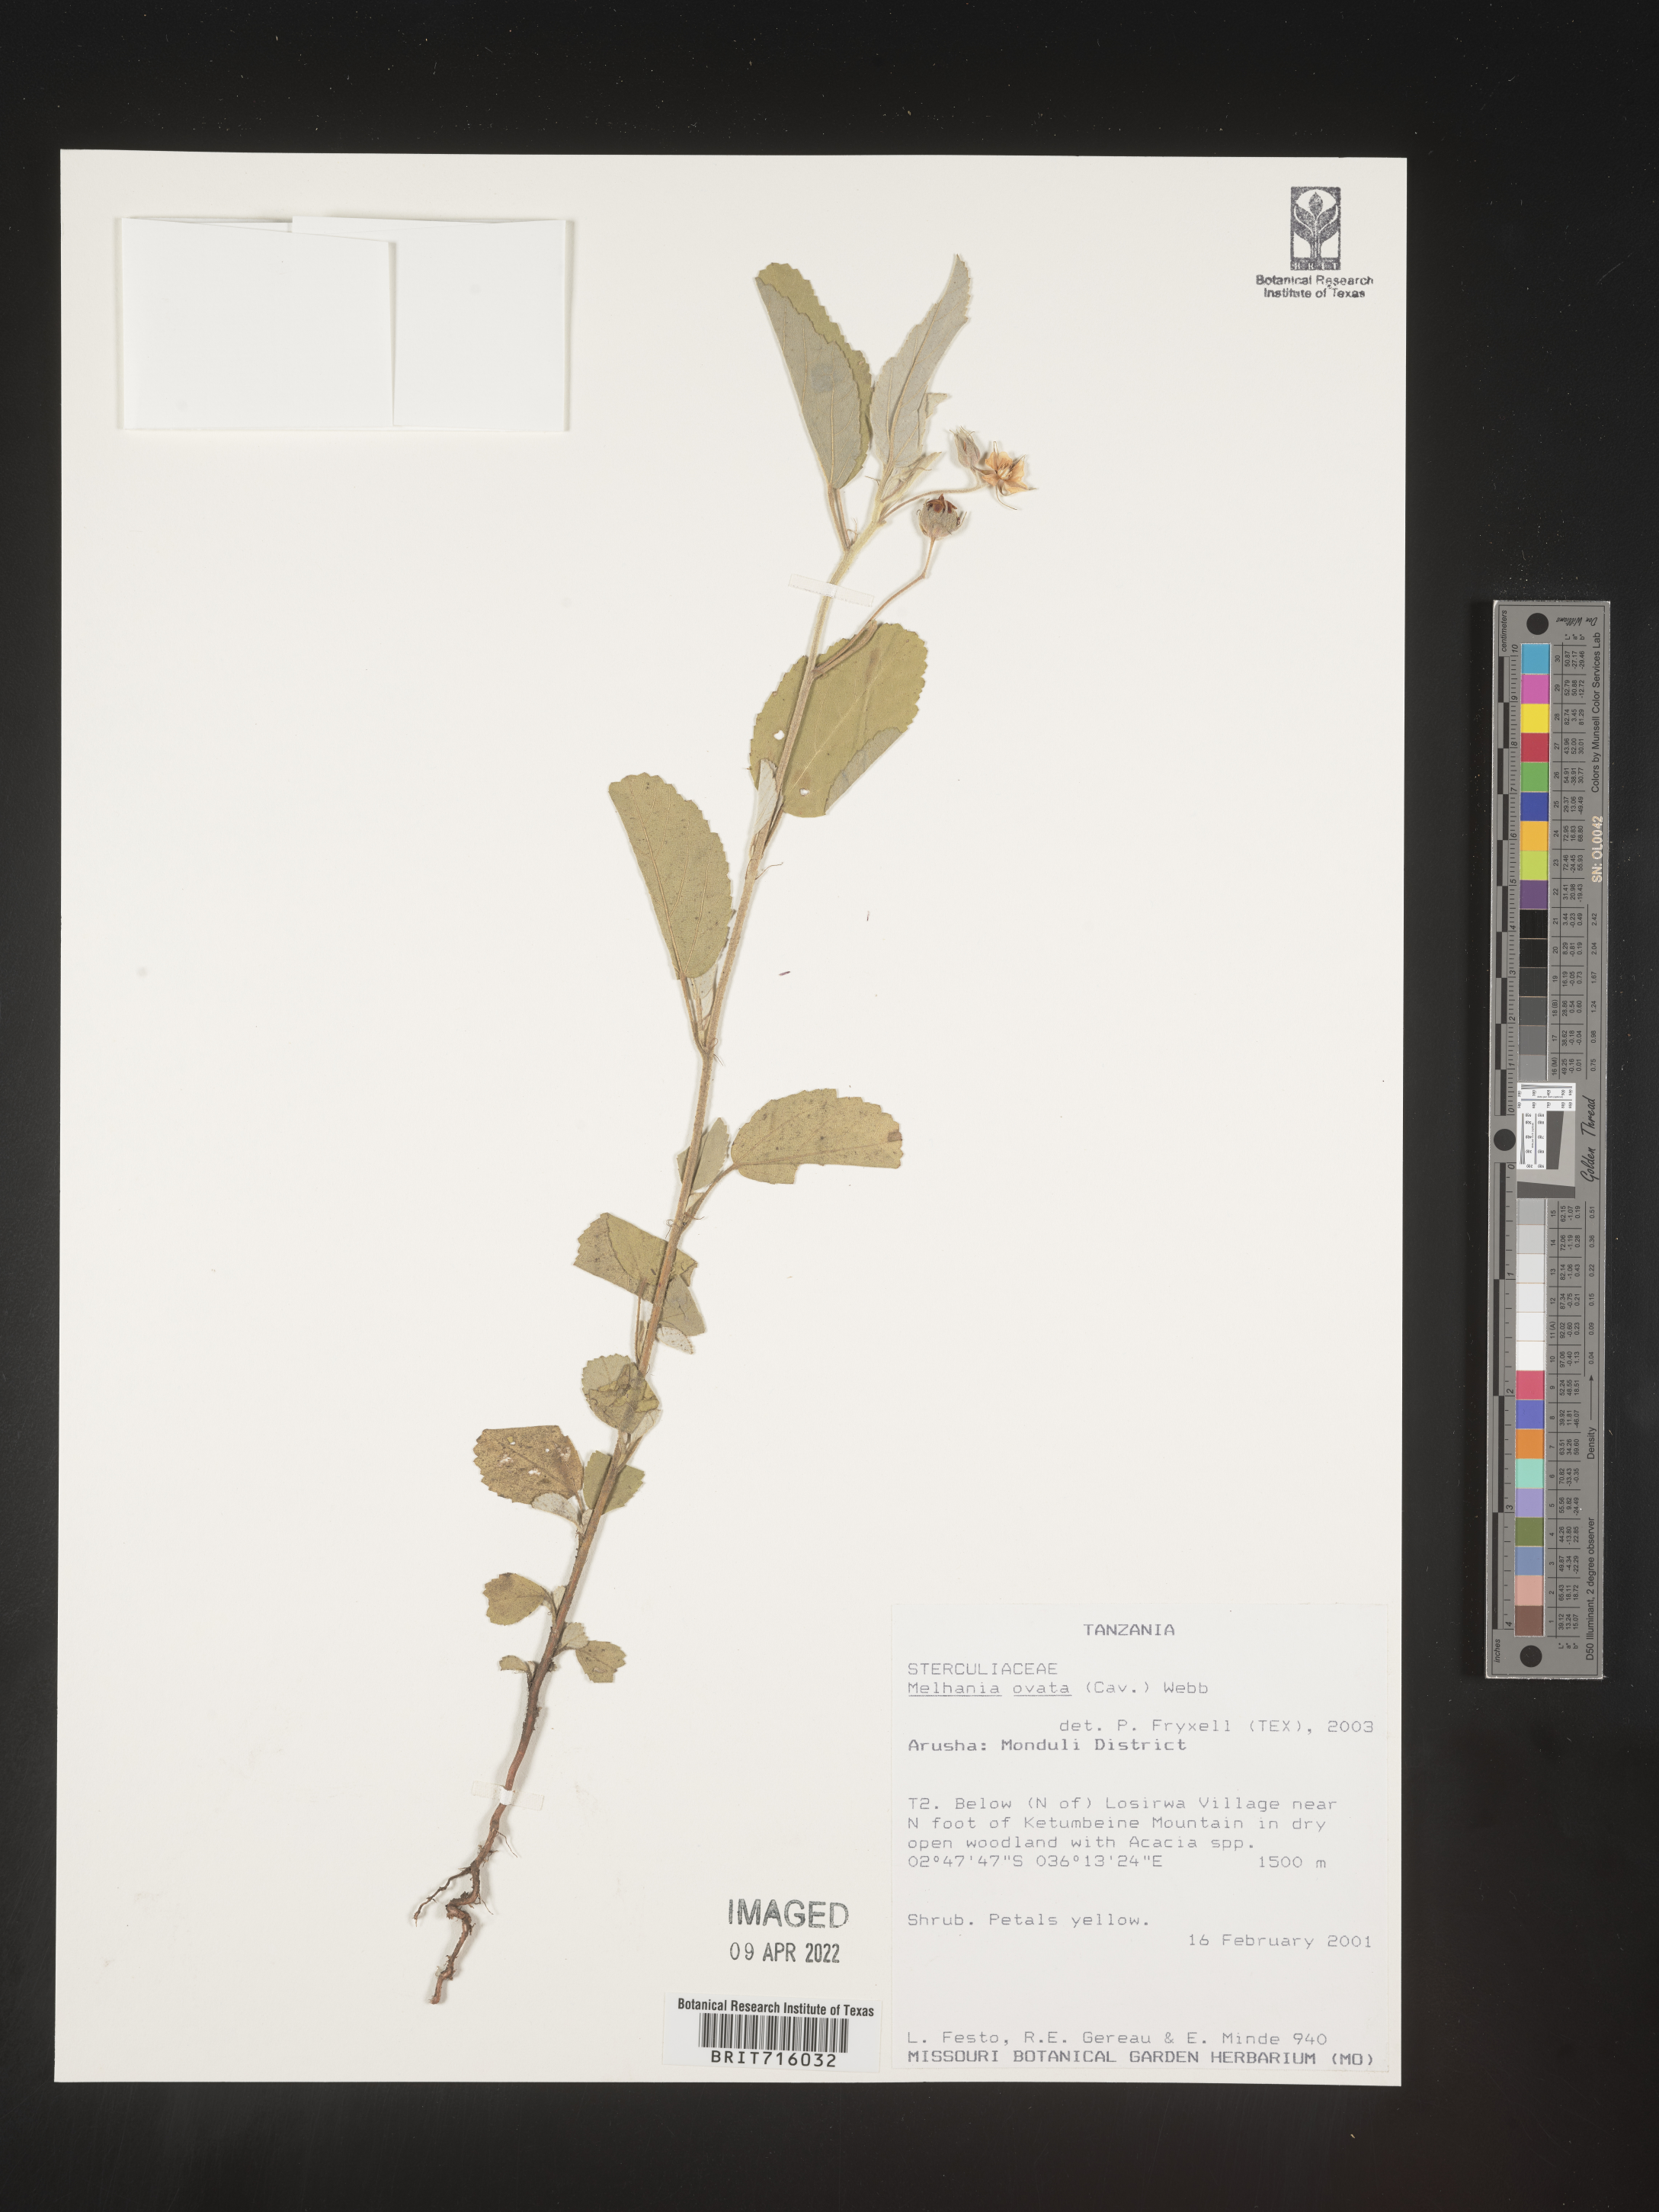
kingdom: Plantae
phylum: Tracheophyta
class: Magnoliopsida
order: Malvales
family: Malvaceae
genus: Melhania
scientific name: Melhania
